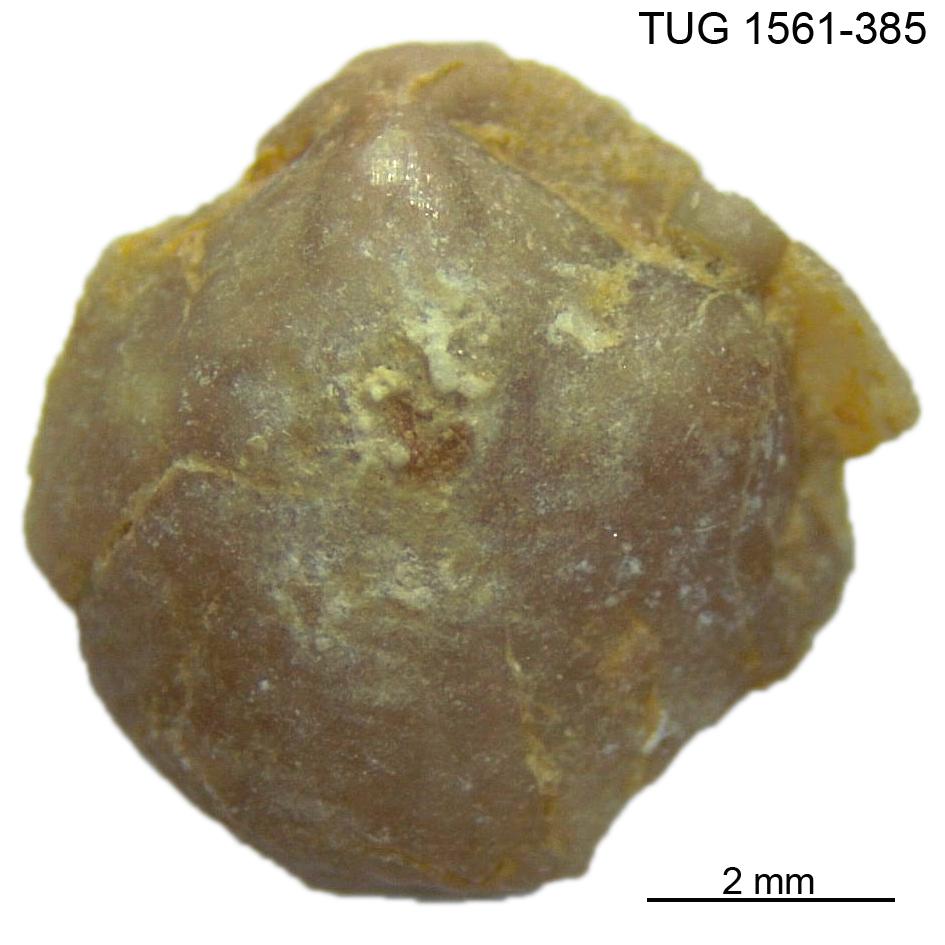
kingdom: Animalia
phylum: Brachiopoda
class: Rhynchonellata
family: Nucleospiridae
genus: Nucleospira
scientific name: Nucleospira Spirifer pisum
